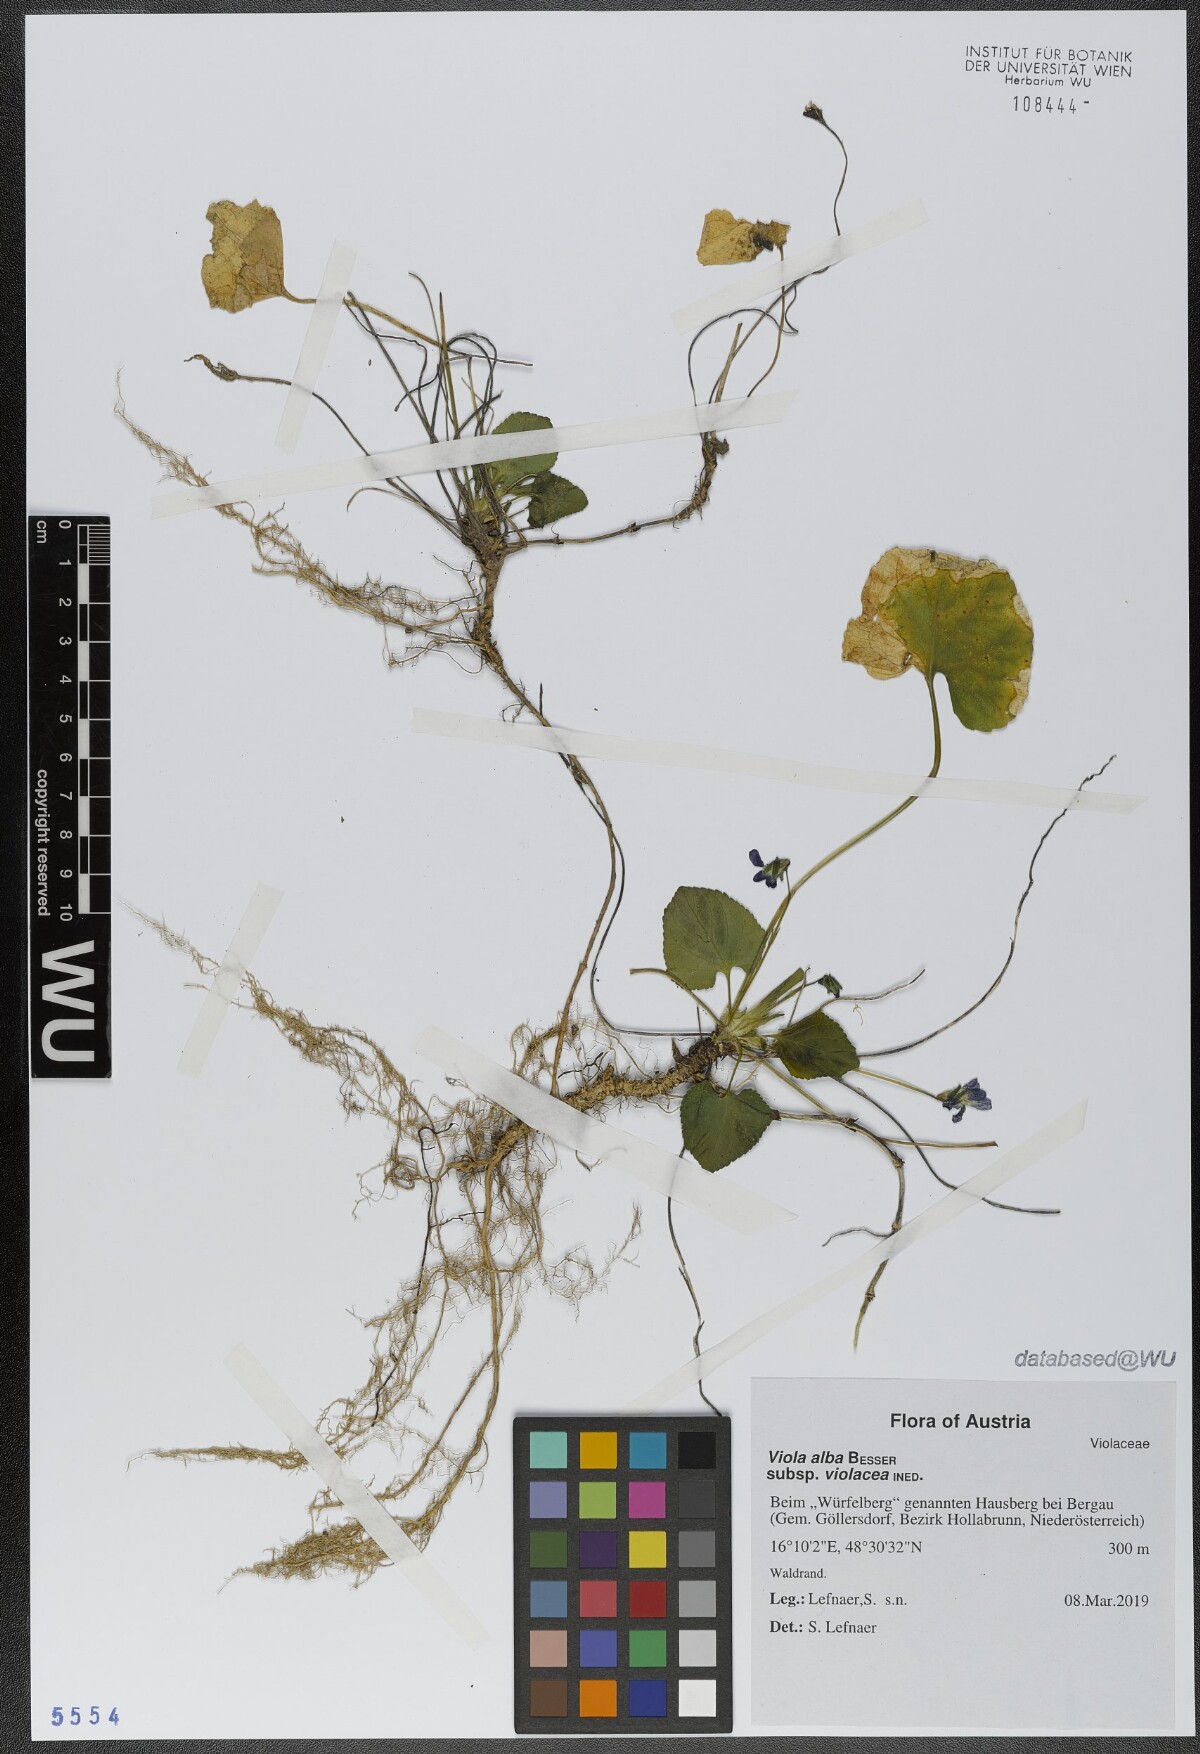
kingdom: Plantae
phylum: Tracheophyta
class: Magnoliopsida
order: Malpighiales
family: Violaceae
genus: Viola
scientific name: Viola alba
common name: White violet
